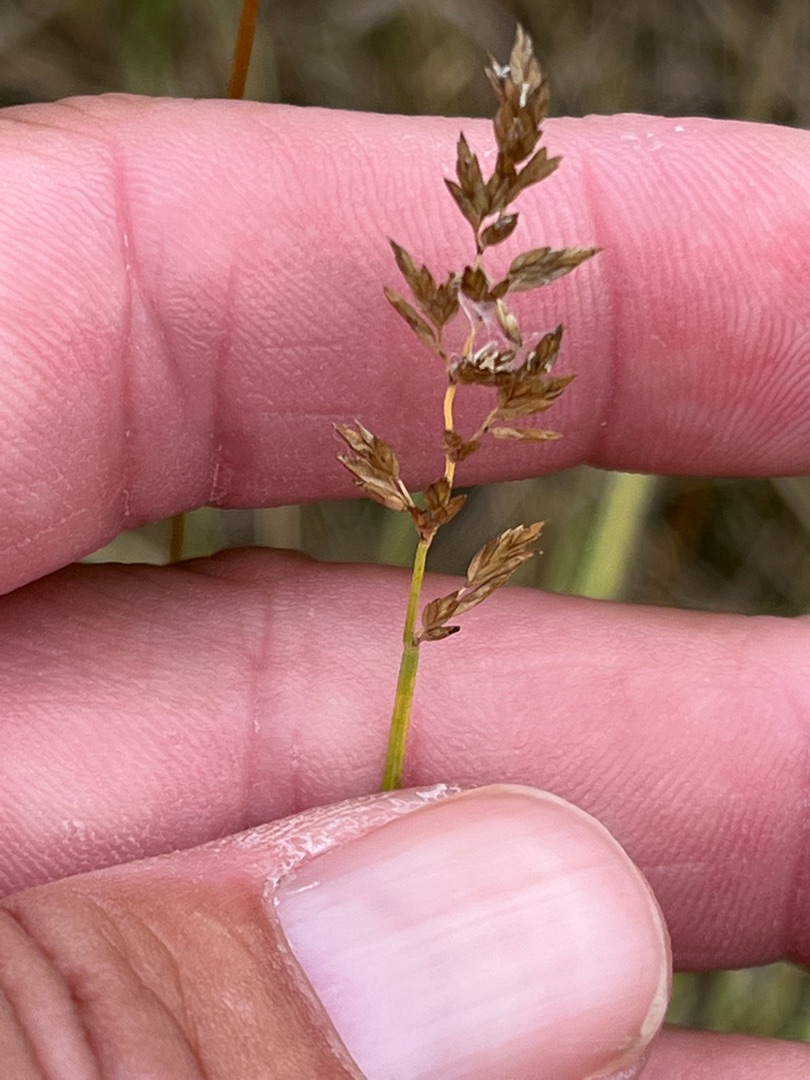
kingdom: Plantae
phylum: Tracheophyta
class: Liliopsida
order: Poales
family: Poaceae
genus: Poa
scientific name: Poa compressa
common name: Fladstrået rapgræs
